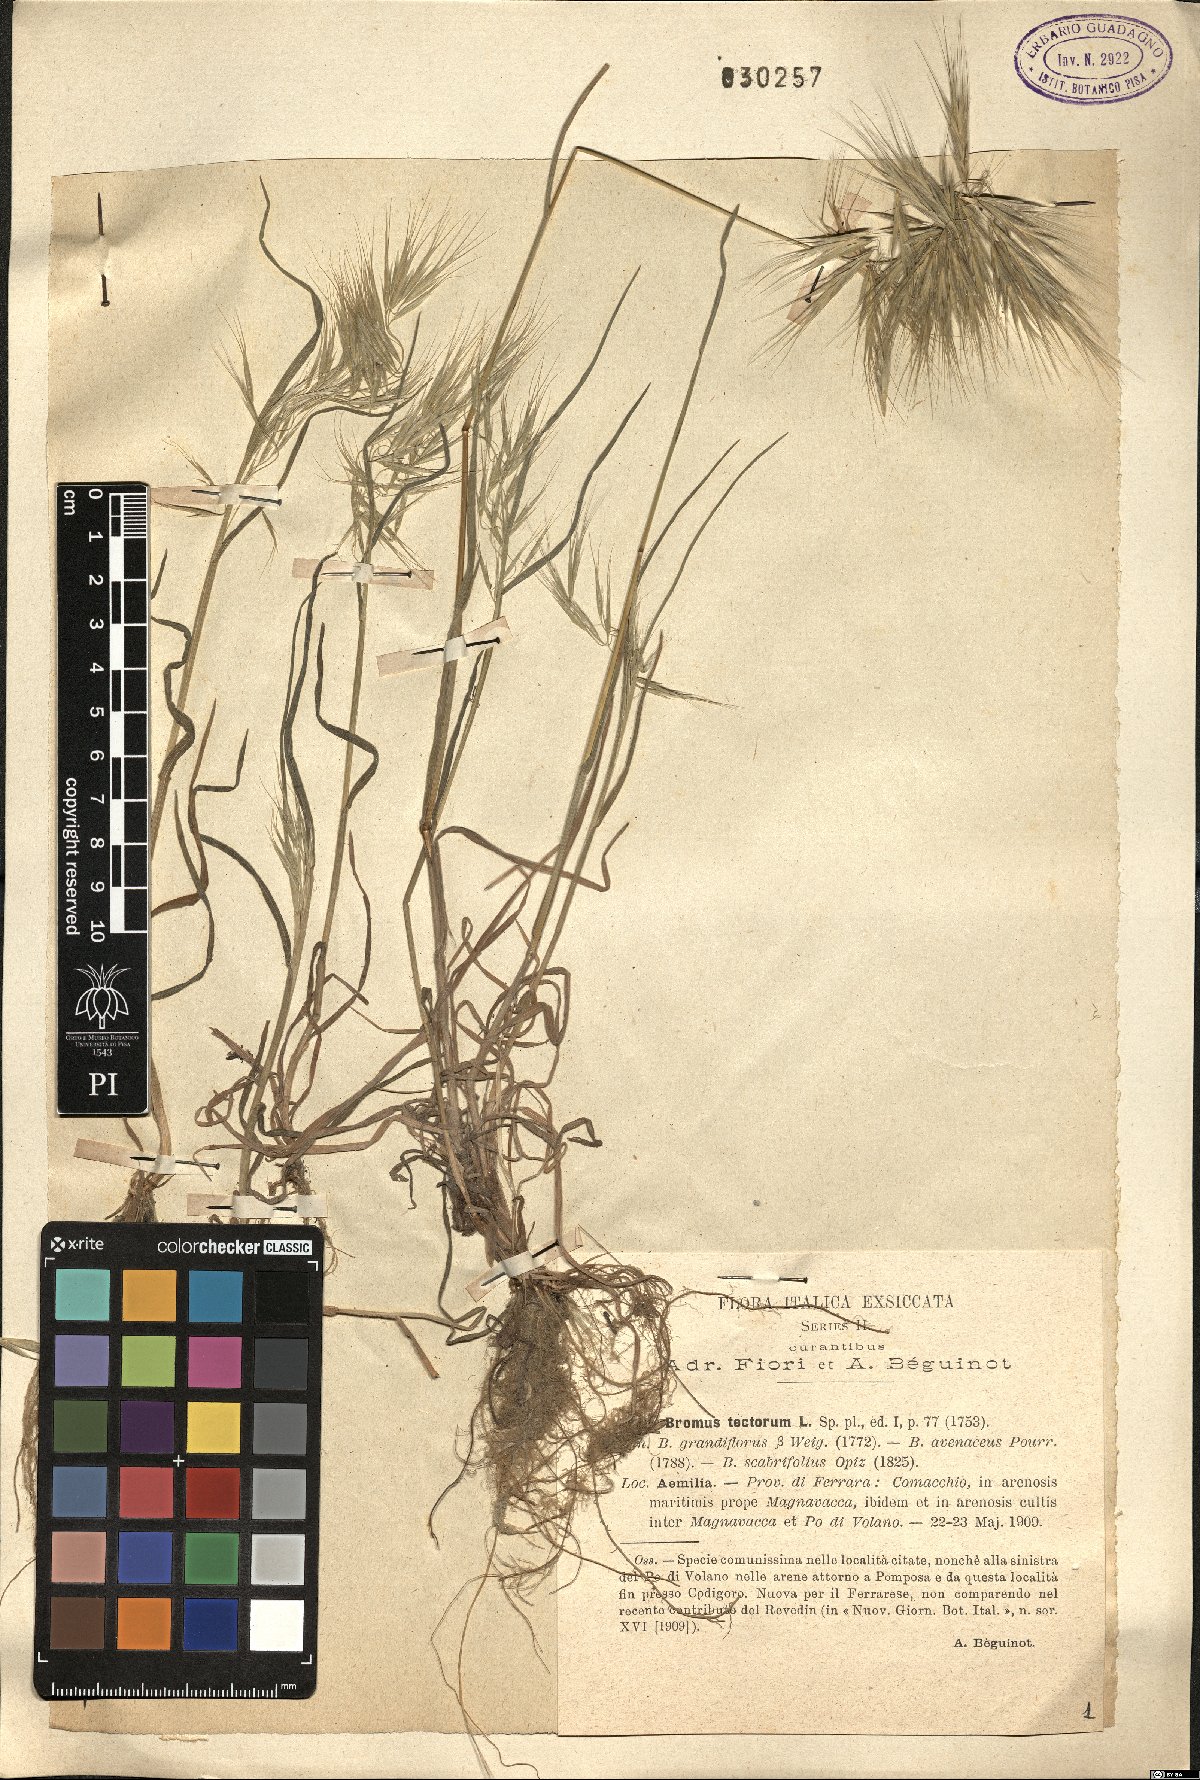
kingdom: Plantae
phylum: Tracheophyta
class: Liliopsida
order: Poales
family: Poaceae
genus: Bromus
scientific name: Bromus tectorum
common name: Cheatgrass
